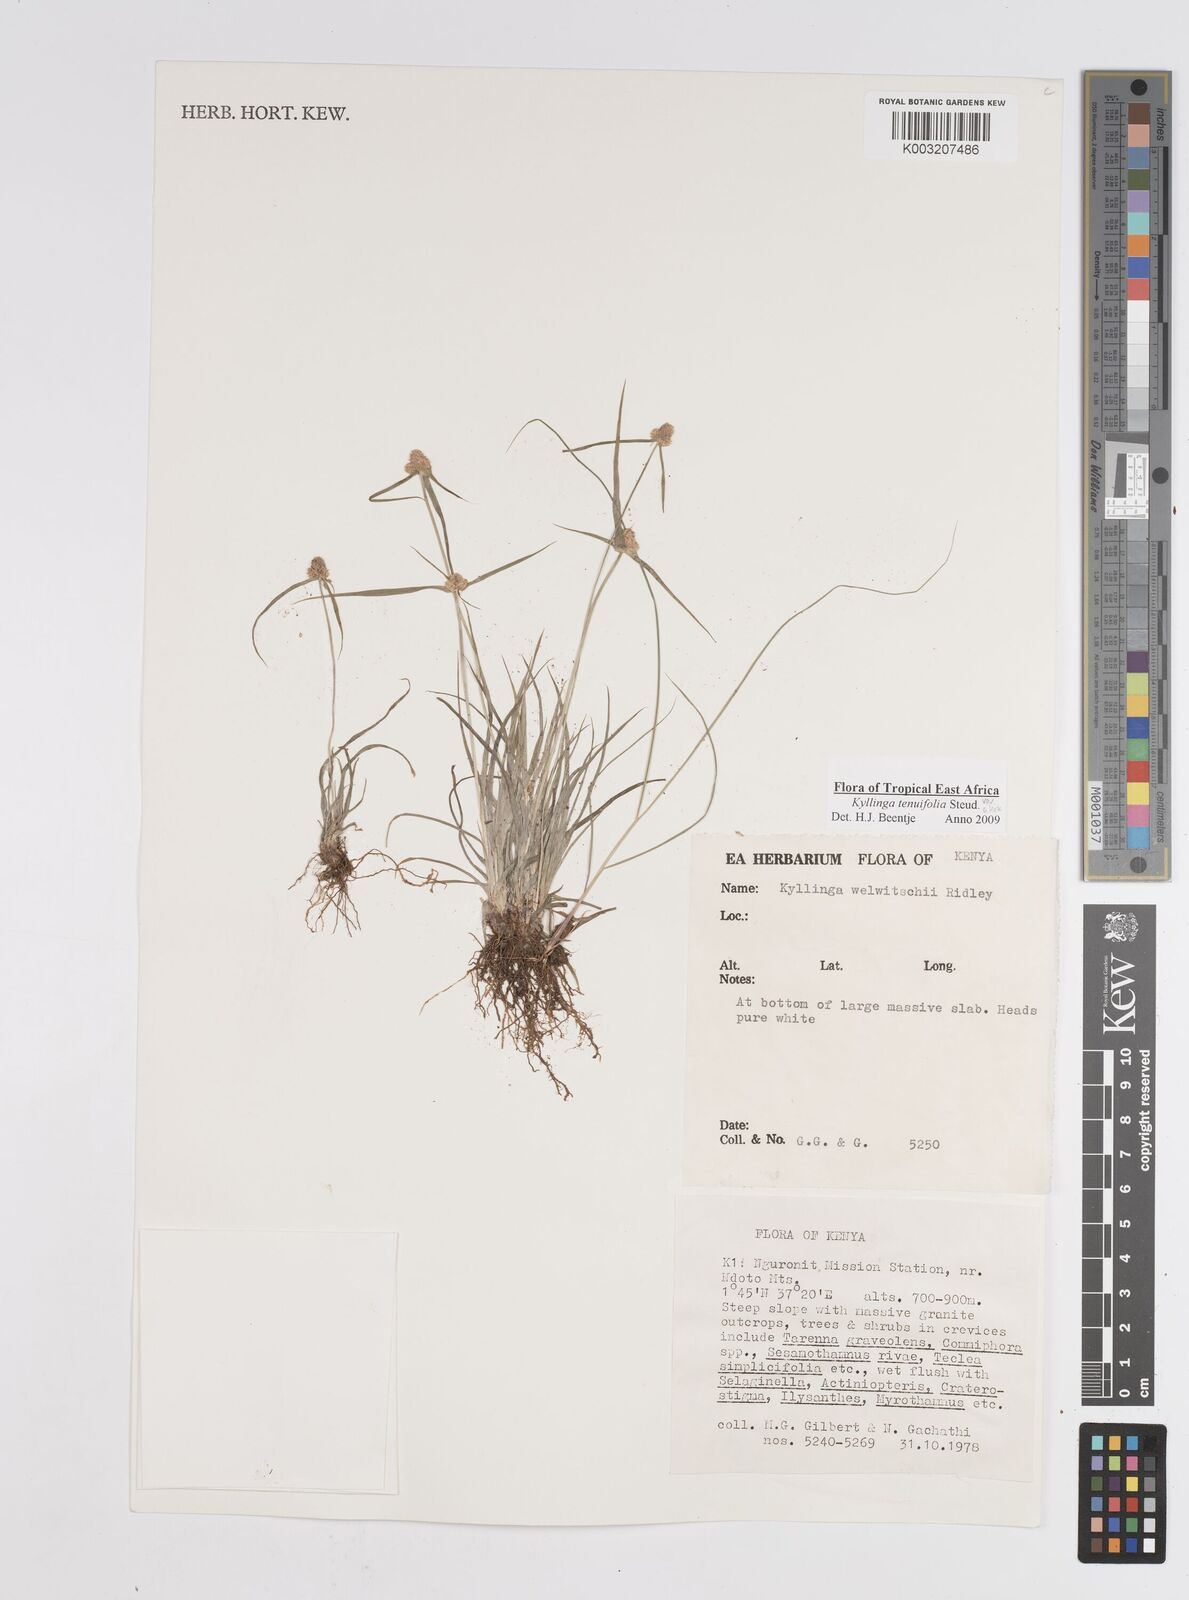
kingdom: Plantae
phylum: Tracheophyta
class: Liliopsida
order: Poales
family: Cyperaceae
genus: Cyperus
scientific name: Cyperus
